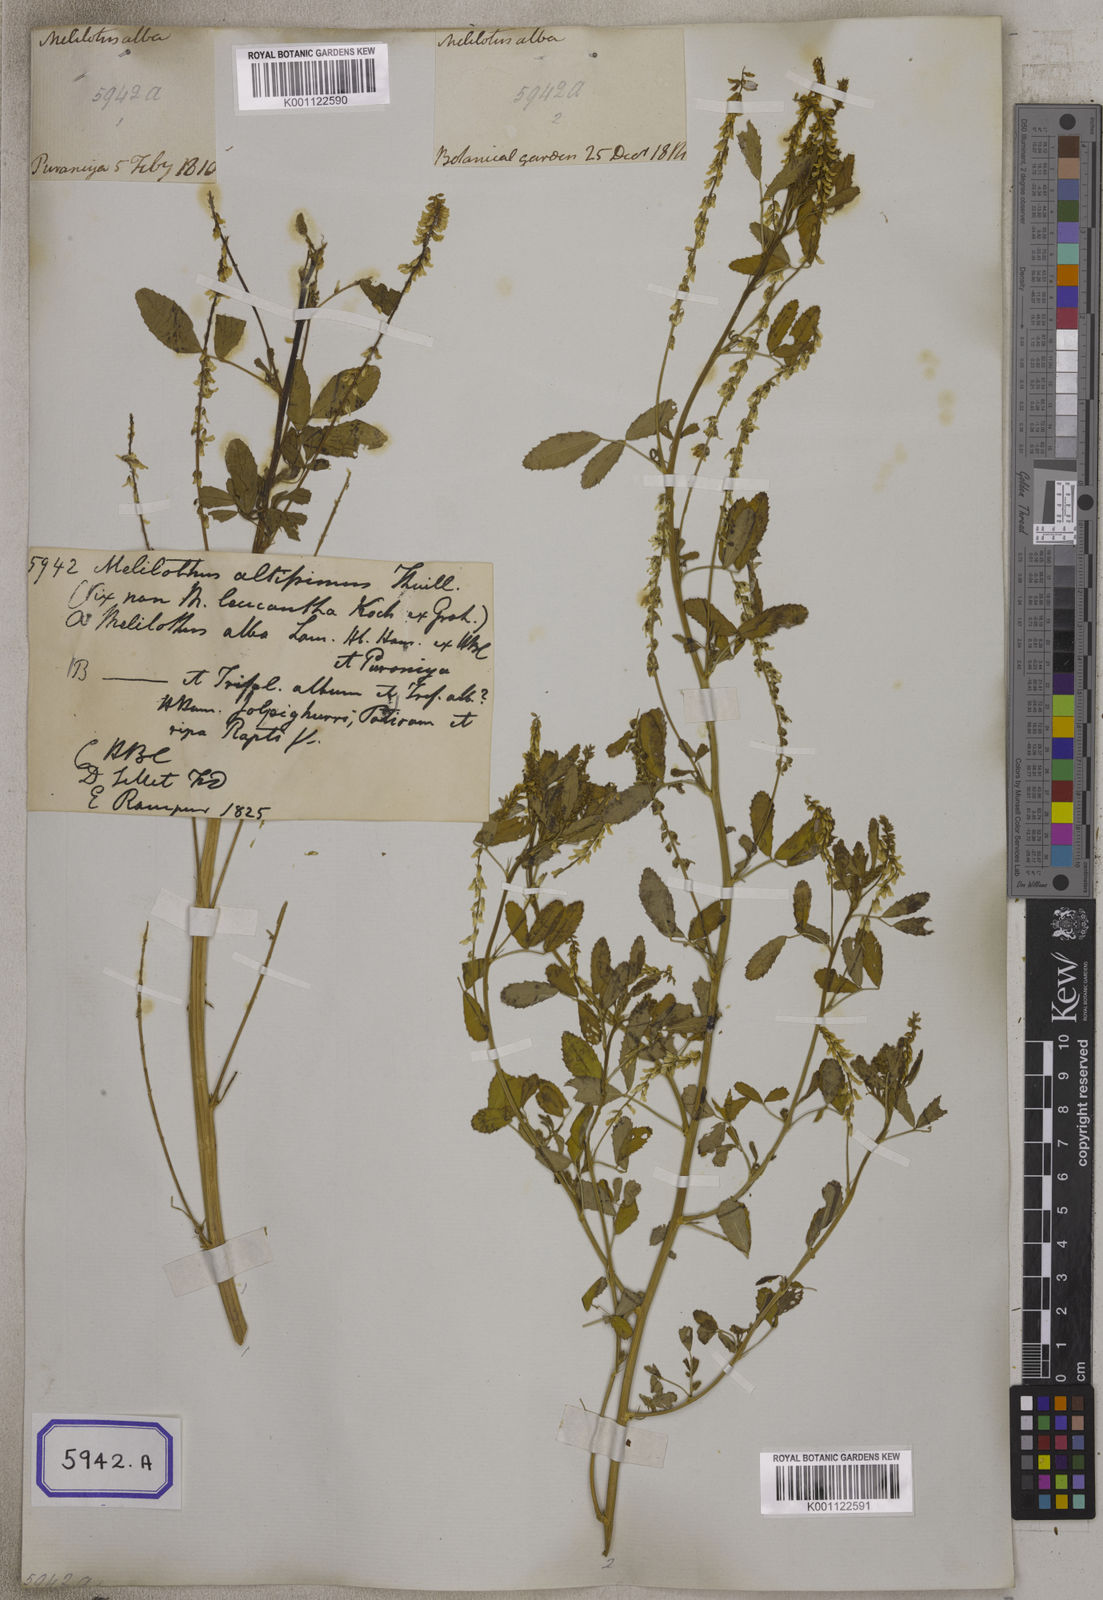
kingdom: Plantae
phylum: Tracheophyta
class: Magnoliopsida
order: Fabales
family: Fabaceae
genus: Melilotus
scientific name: Melilotus altissimus
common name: Tall melilot
